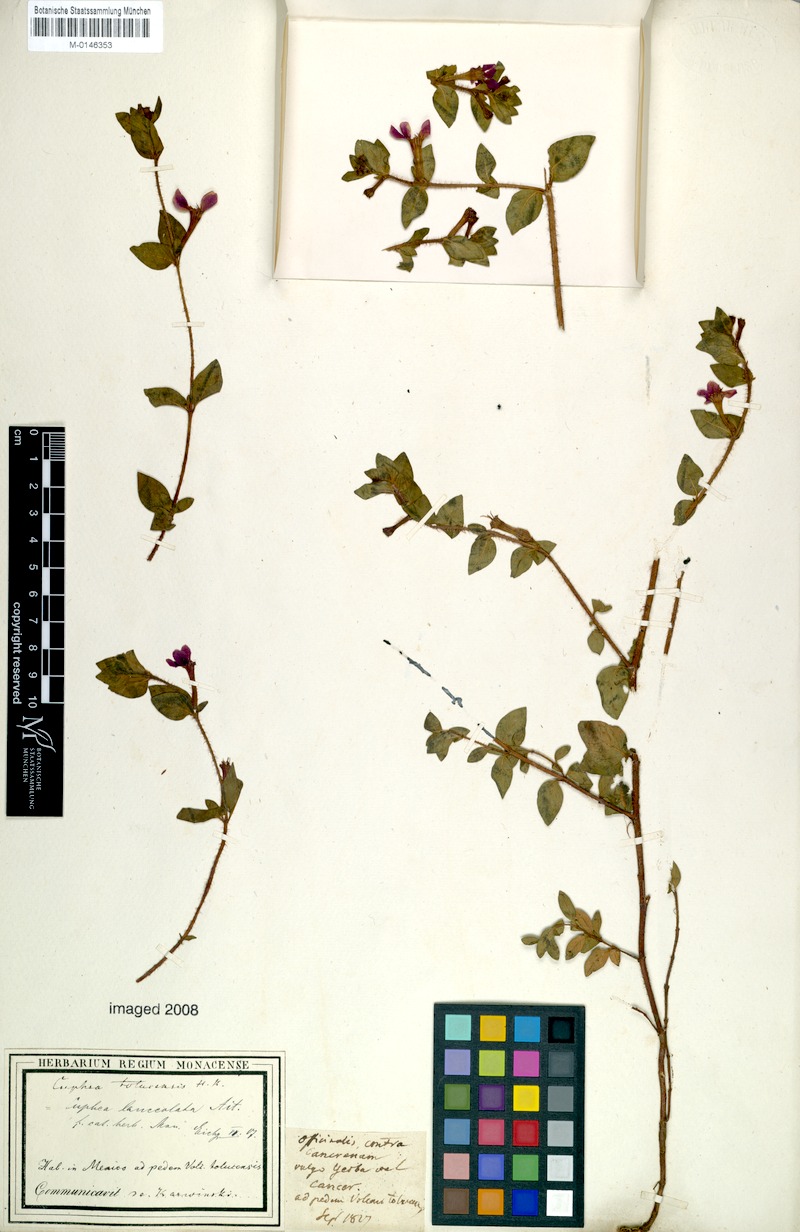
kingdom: Plantae
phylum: Tracheophyta
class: Magnoliopsida
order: Myrtales
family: Lythraceae
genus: Cuphea
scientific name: Cuphea lanceolata
